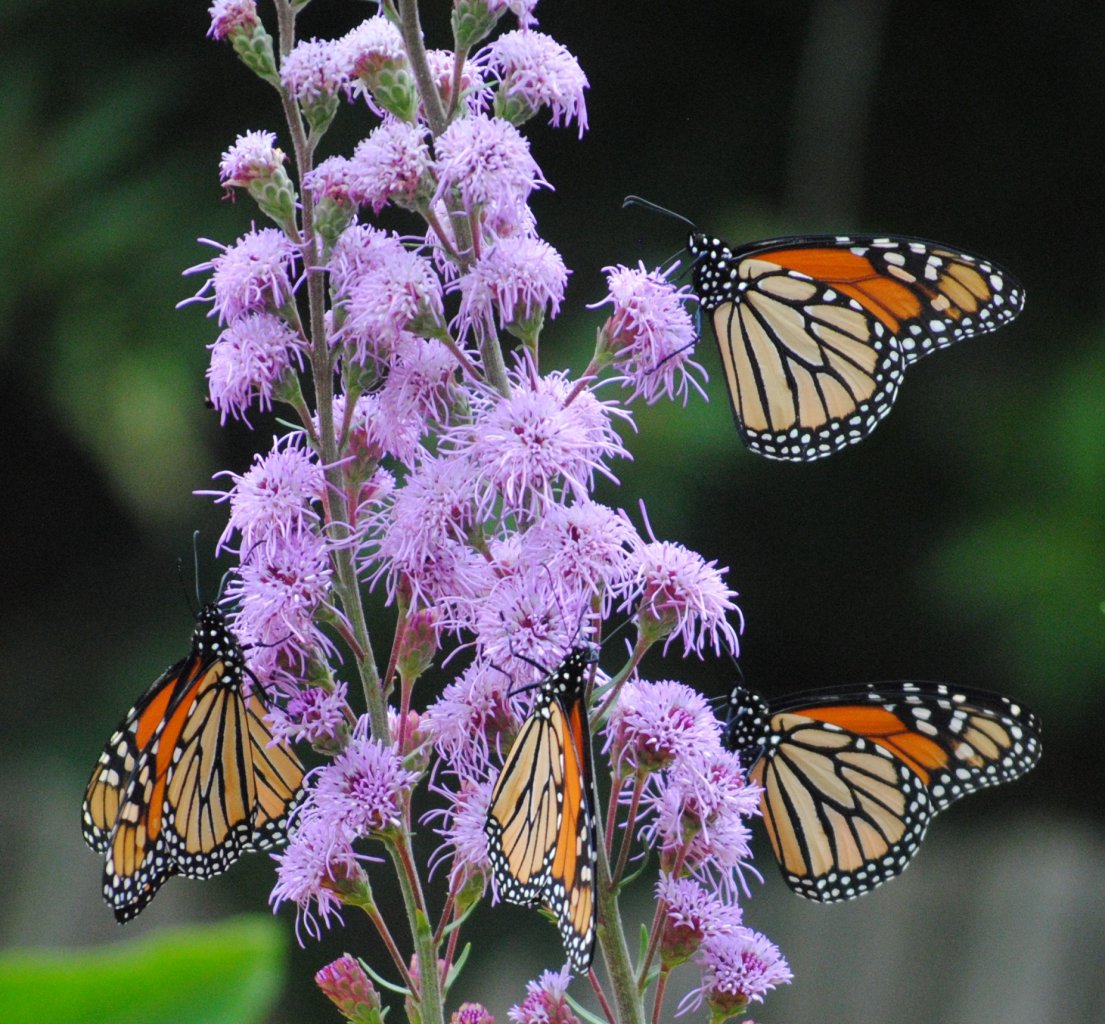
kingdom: Animalia
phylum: Arthropoda
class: Insecta
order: Lepidoptera
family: Nymphalidae
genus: Danaus
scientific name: Danaus plexippus
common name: Monarch
